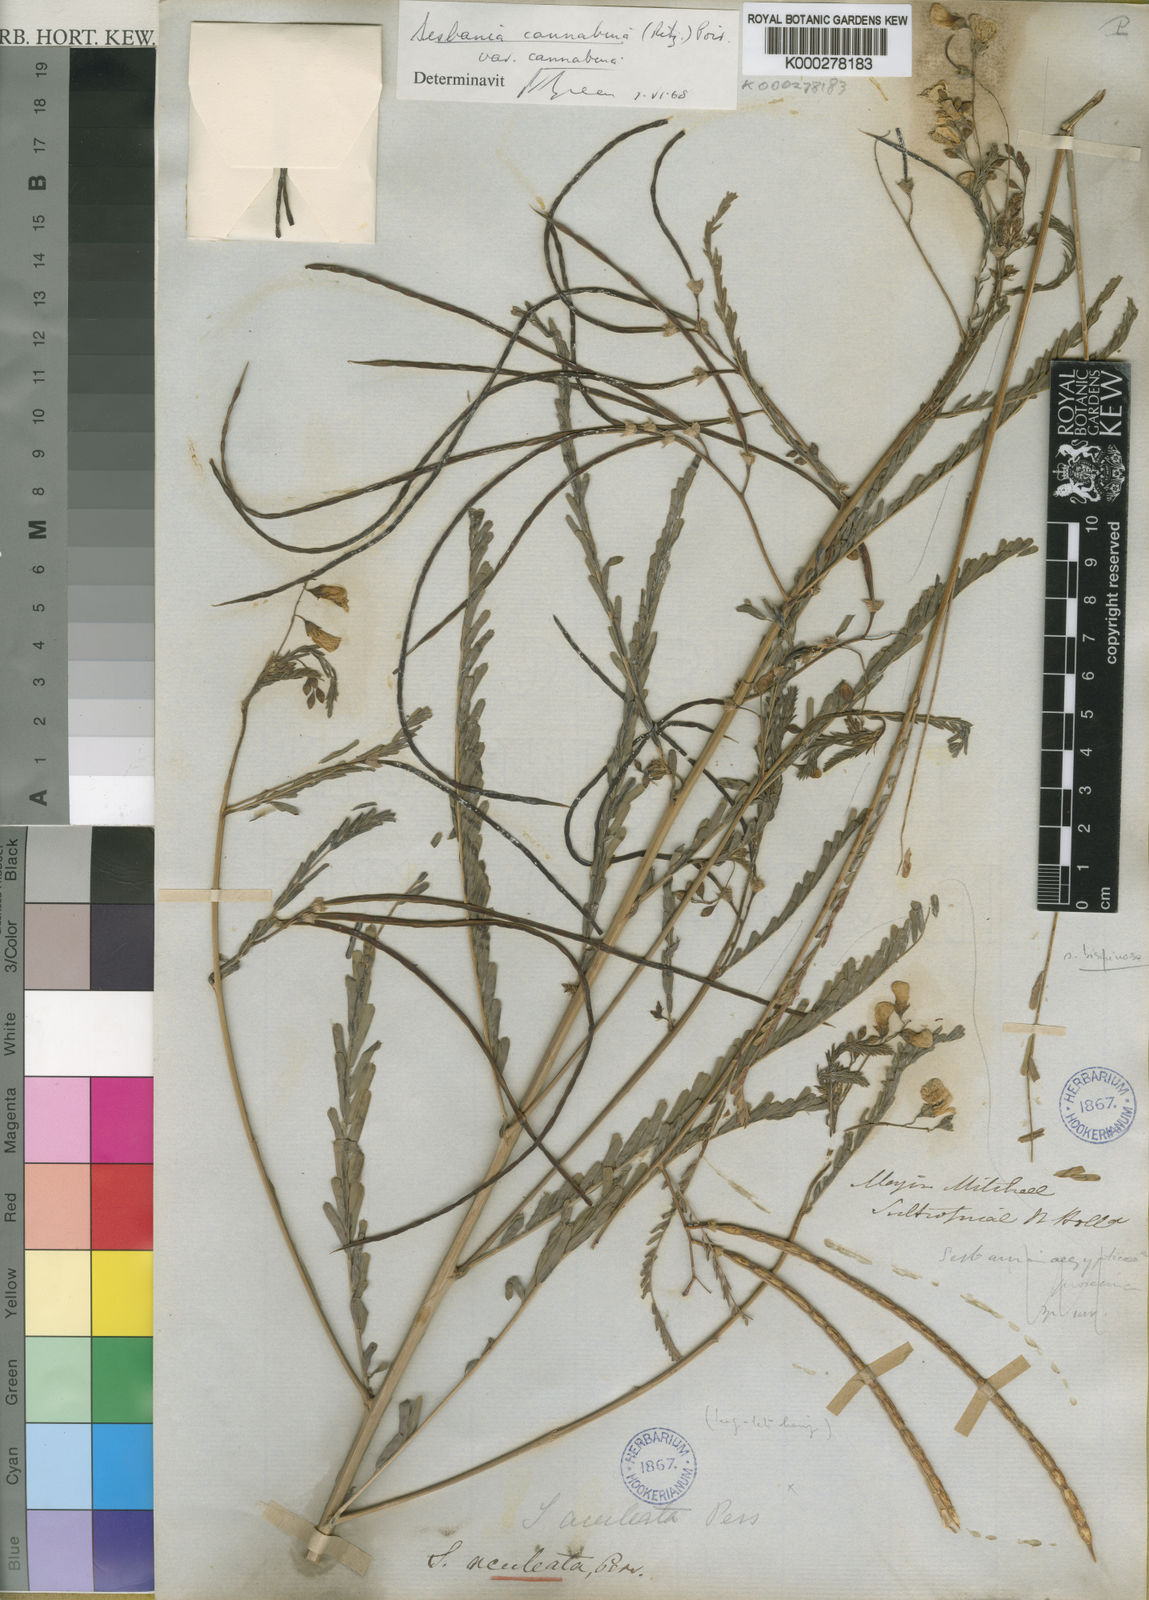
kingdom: Plantae
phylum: Tracheophyta
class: Magnoliopsida
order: Fabales
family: Fabaceae
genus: Sesbania
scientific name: Sesbania cannabina
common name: Canicha
